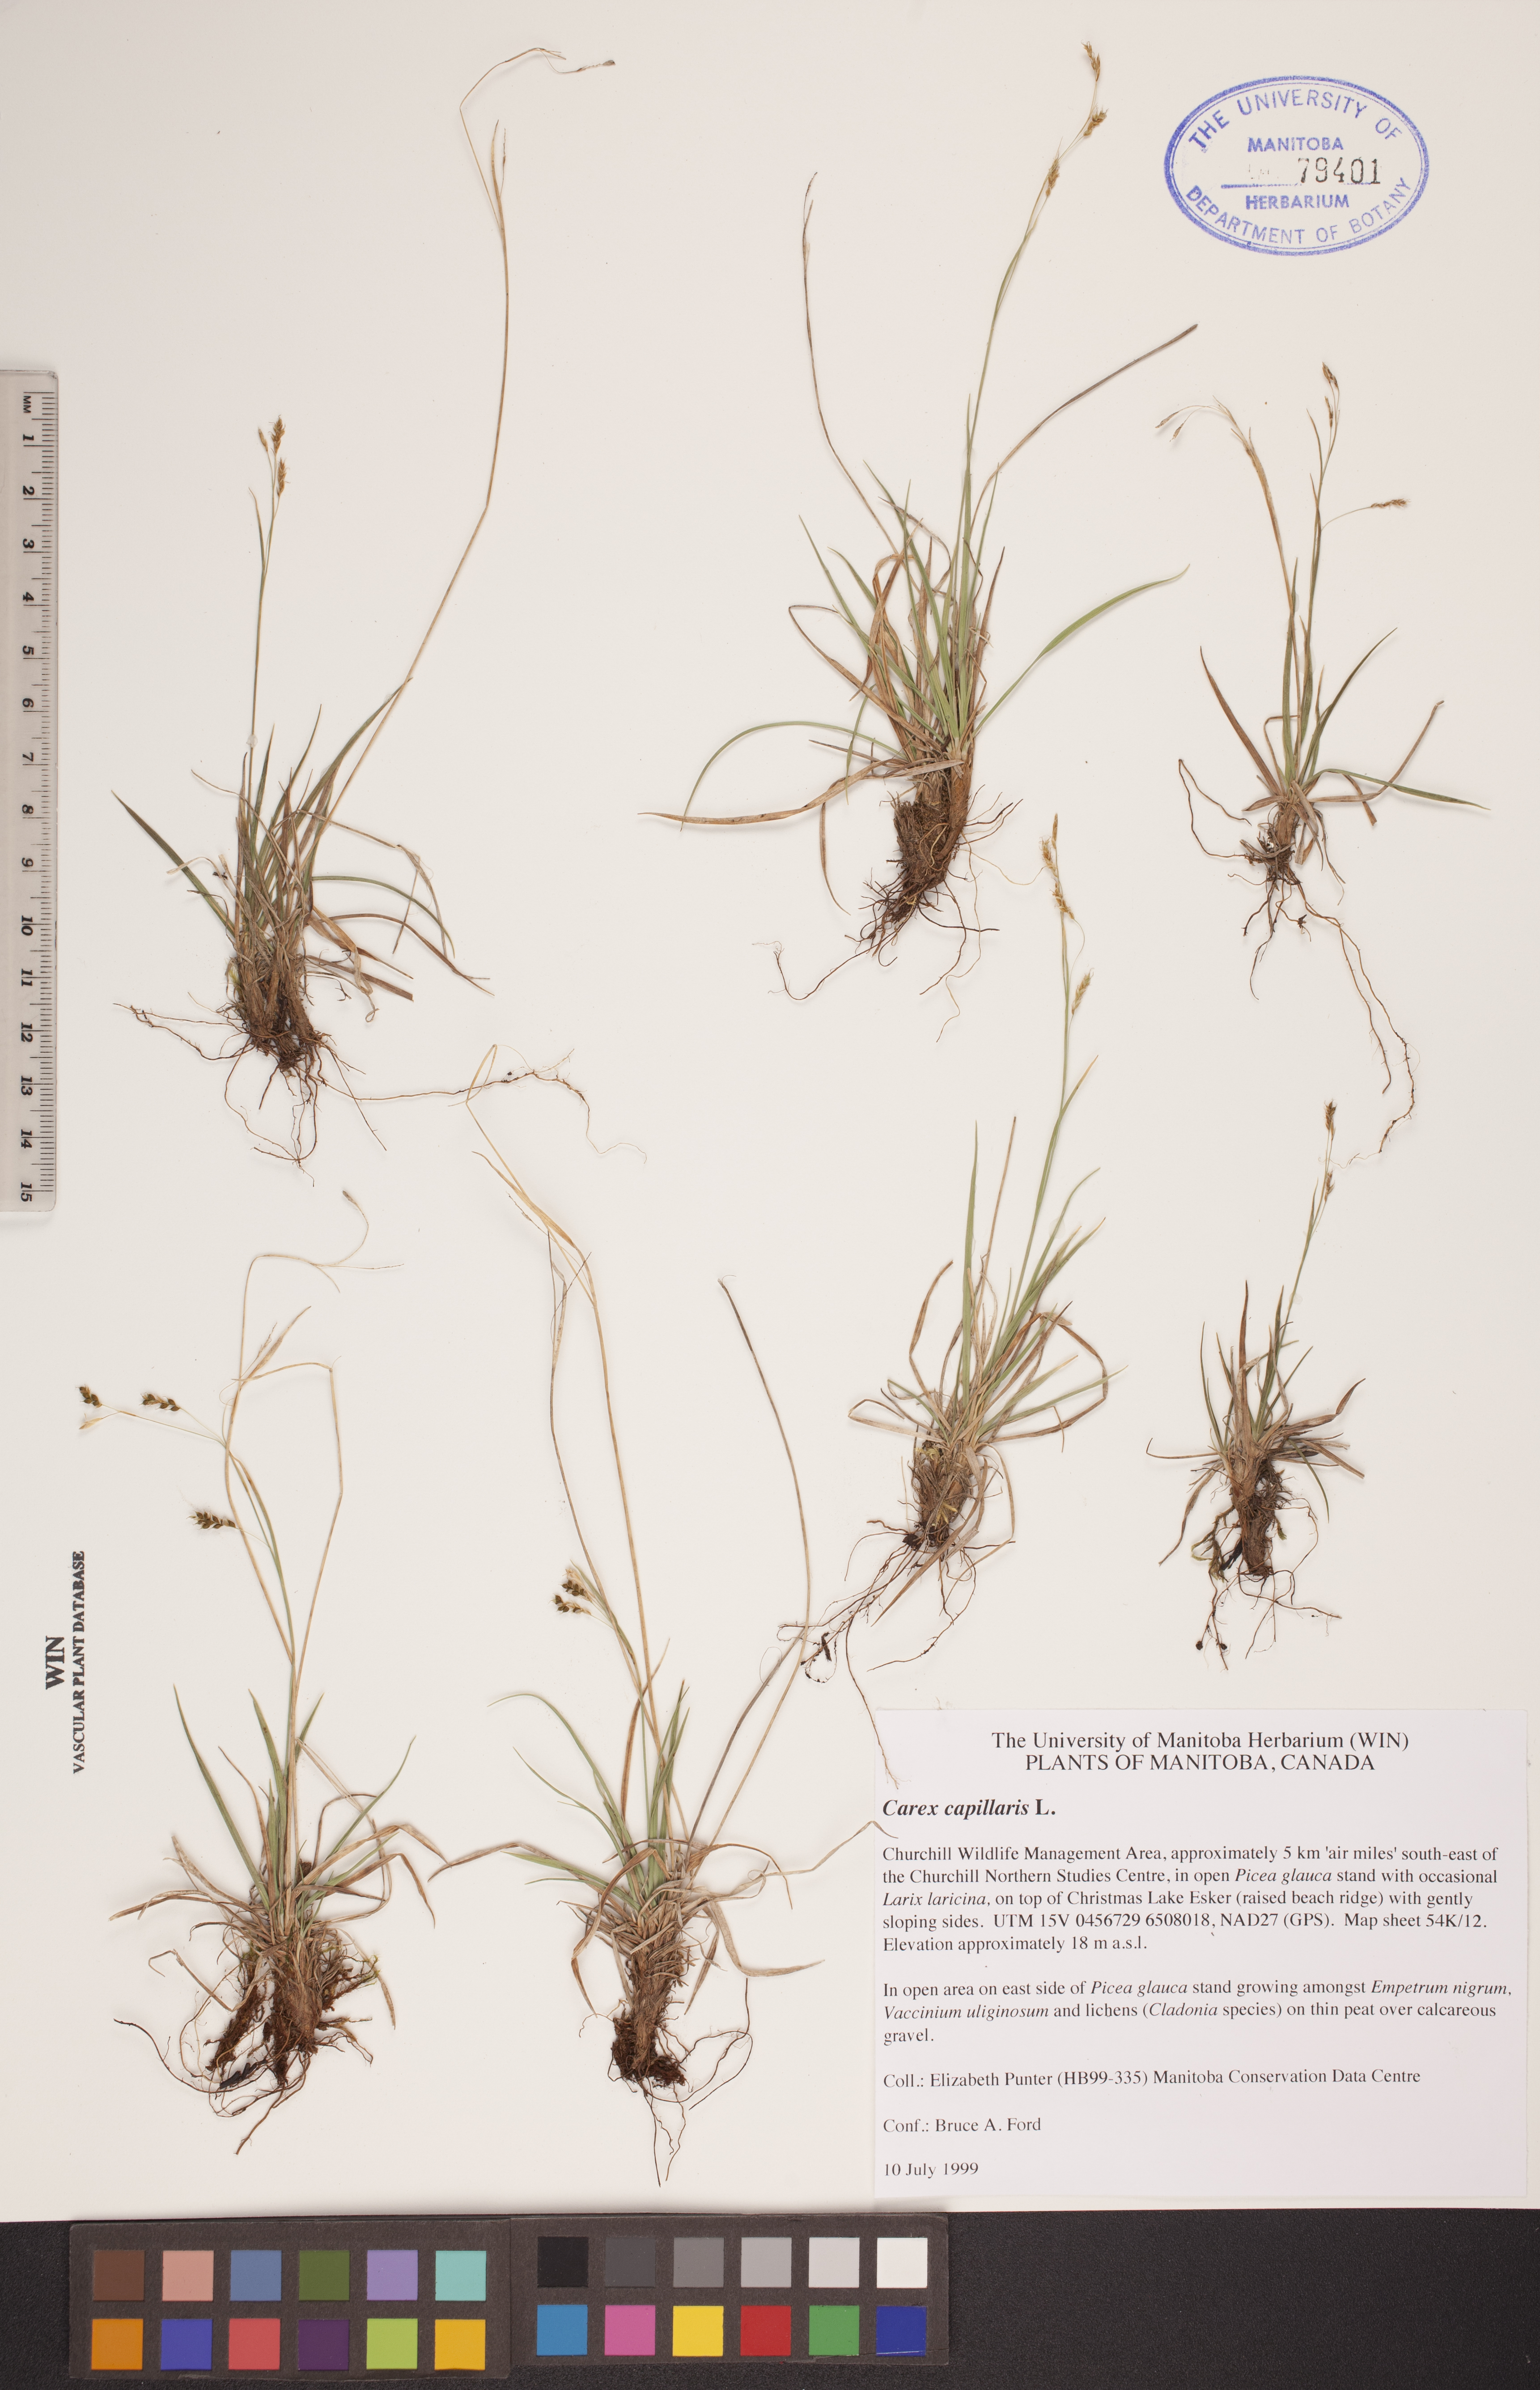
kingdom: Plantae
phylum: Tracheophyta
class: Liliopsida
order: Poales
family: Cyperaceae
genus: Carex
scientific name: Carex capillaris
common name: Hair sedge
